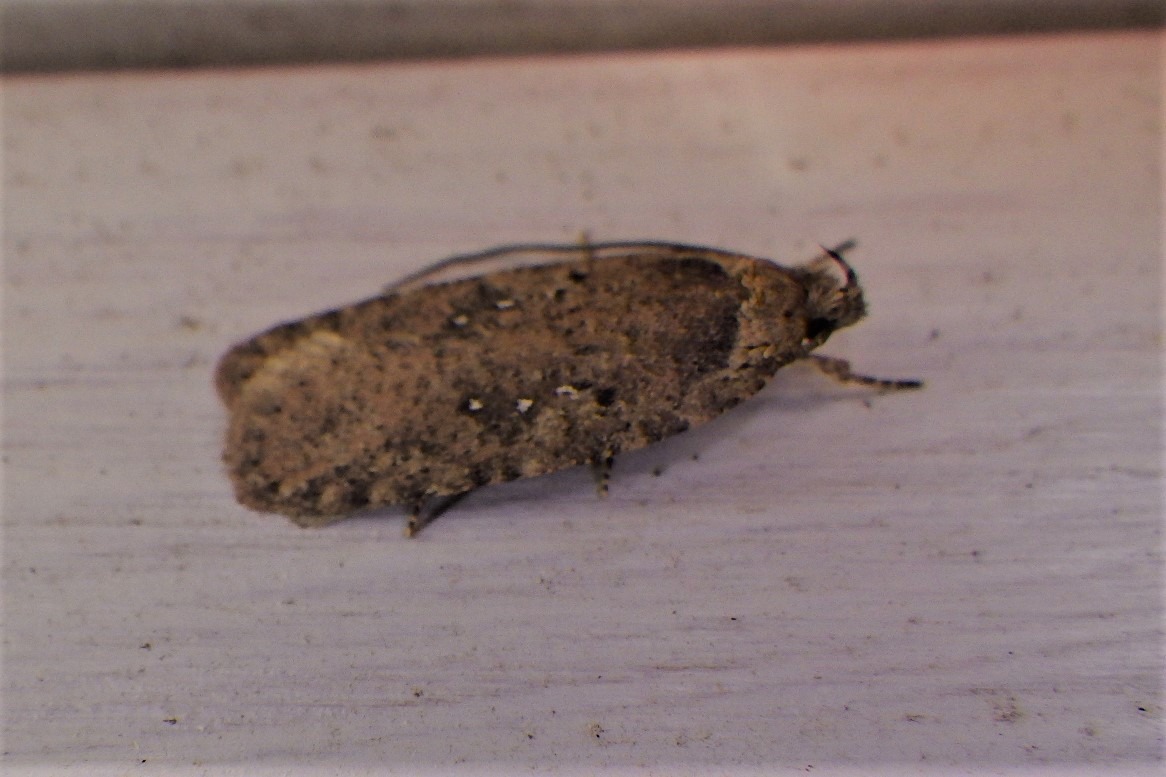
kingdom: Animalia
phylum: Arthropoda
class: Insecta
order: Lepidoptera
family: Depressariidae
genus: Agonopterix
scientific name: Agonopterix heracliana
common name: Almindelig fladmøl
